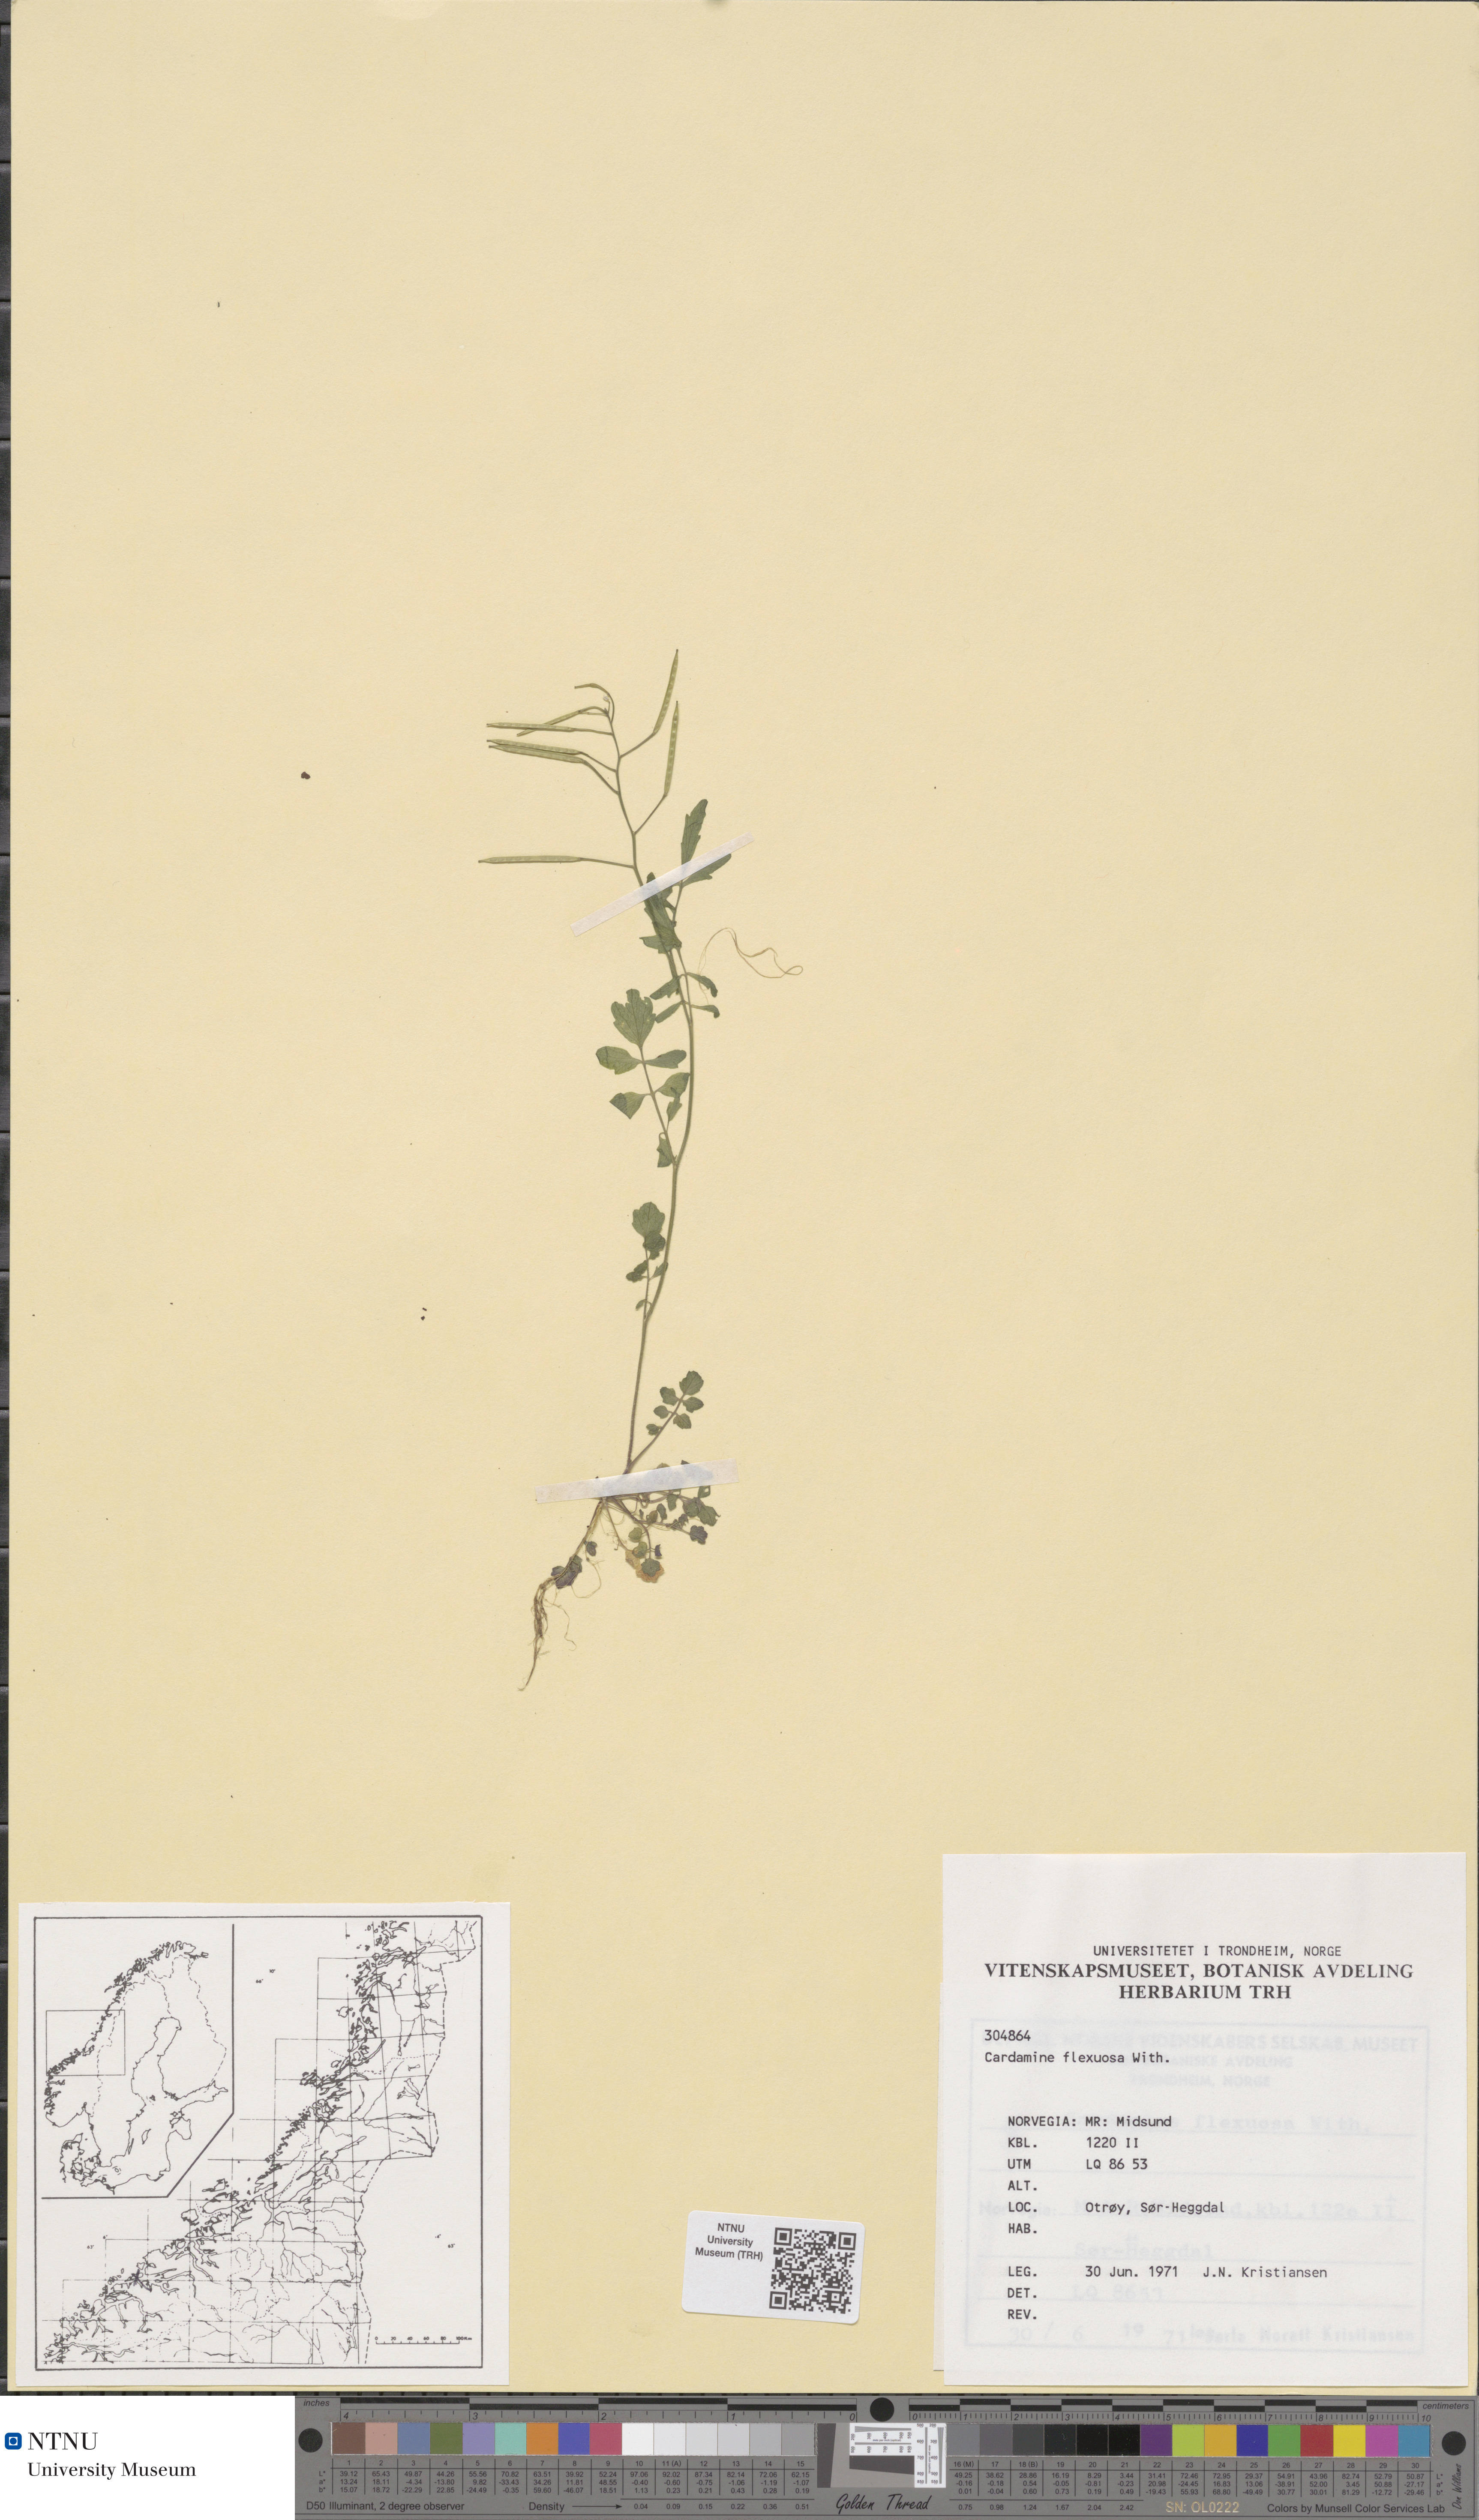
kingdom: Plantae
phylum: Tracheophyta
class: Magnoliopsida
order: Brassicales
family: Brassicaceae
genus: Cardamine
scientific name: Cardamine flexuosa
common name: Woodland bittercress
